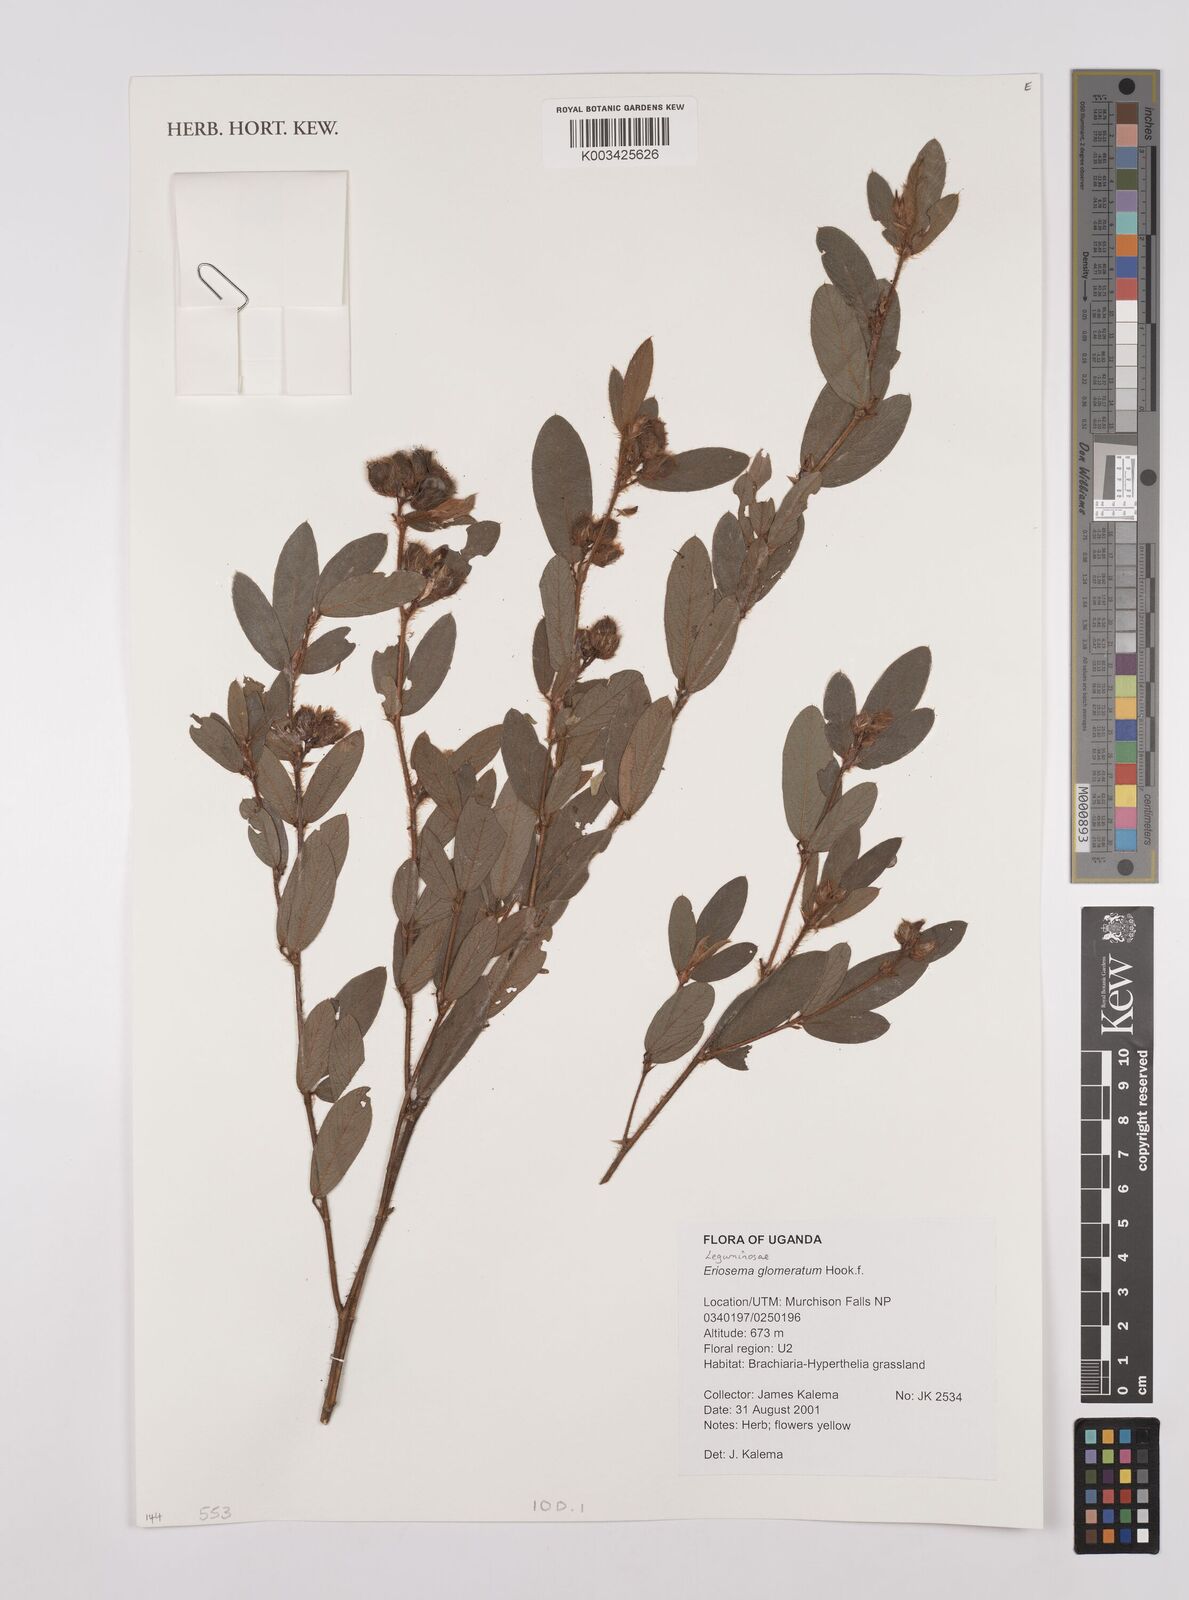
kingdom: Plantae
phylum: Tracheophyta
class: Magnoliopsida
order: Fabales
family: Fabaceae
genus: Eriosema
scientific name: Eriosema glomeratum
